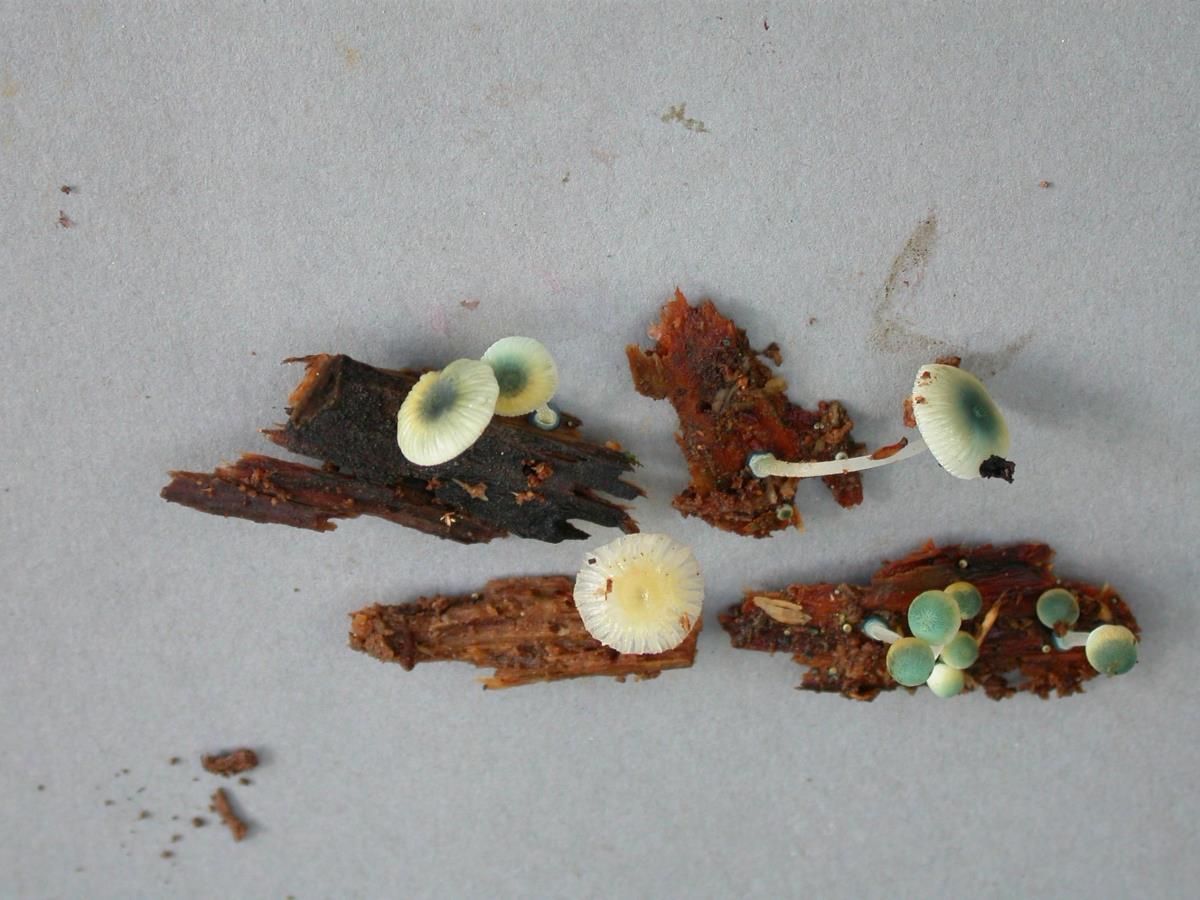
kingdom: Fungi
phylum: Basidiomycota
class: Agaricomycetes
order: Agaricales
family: Mycenaceae
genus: Mycena
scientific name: Mycena interrupta
